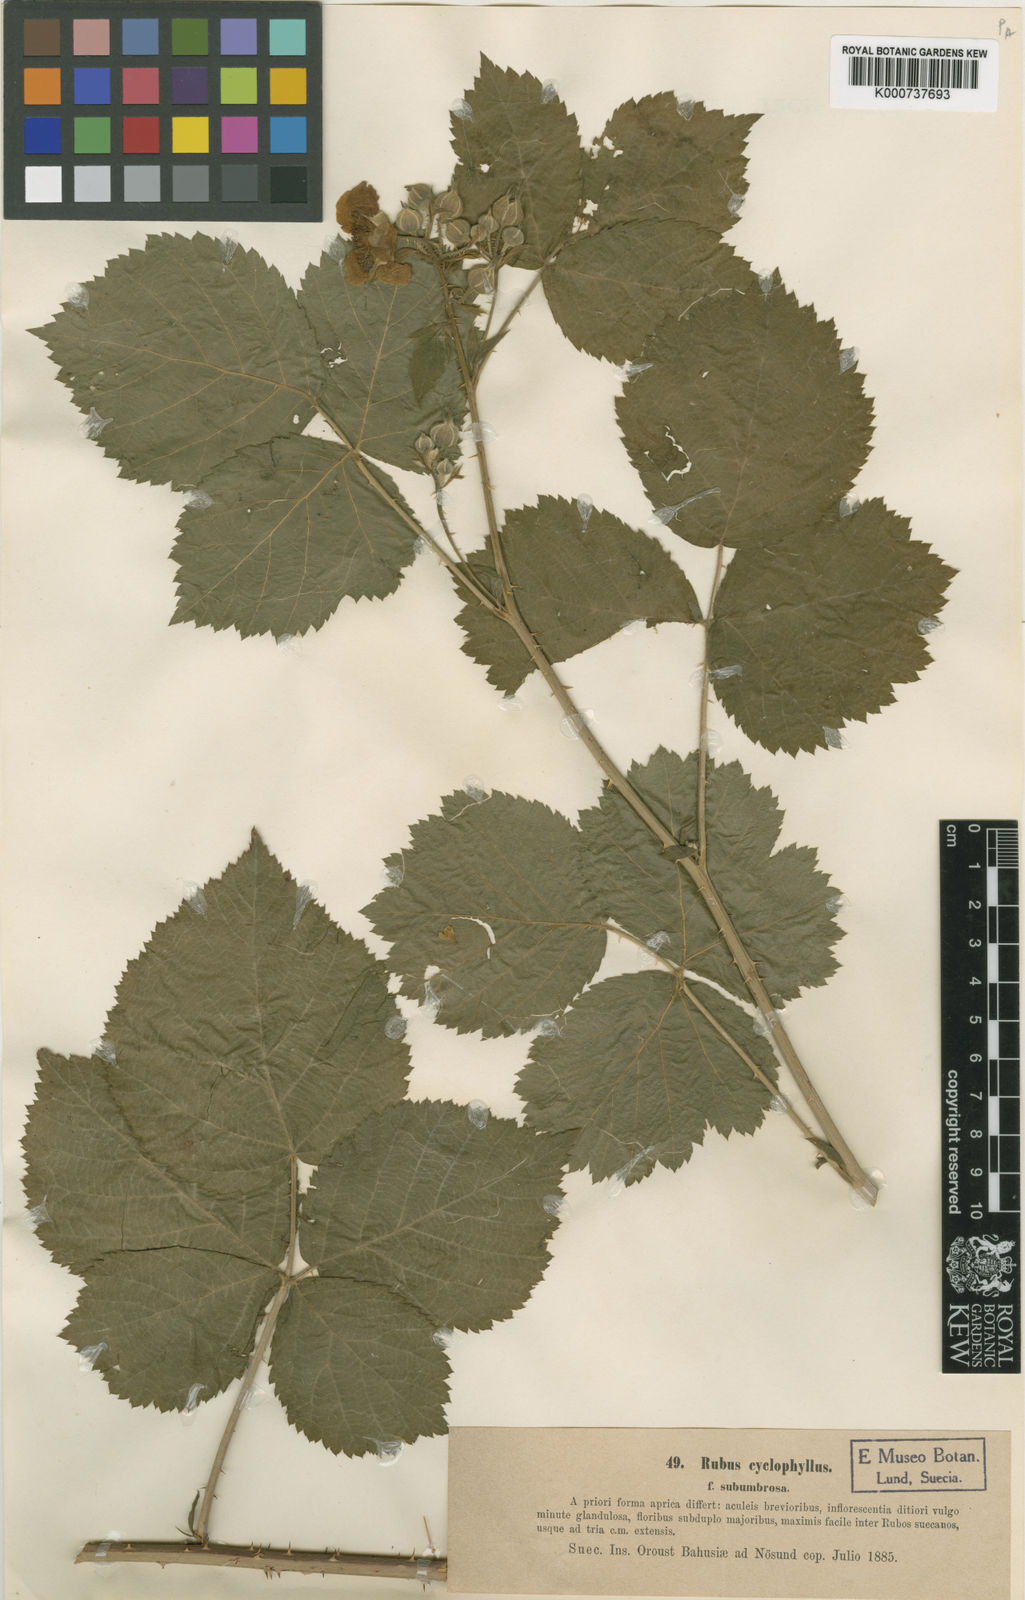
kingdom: Plantae
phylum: Tracheophyta
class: Magnoliopsida
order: Rosales
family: Rosaceae
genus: Rubus
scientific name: Rubus
